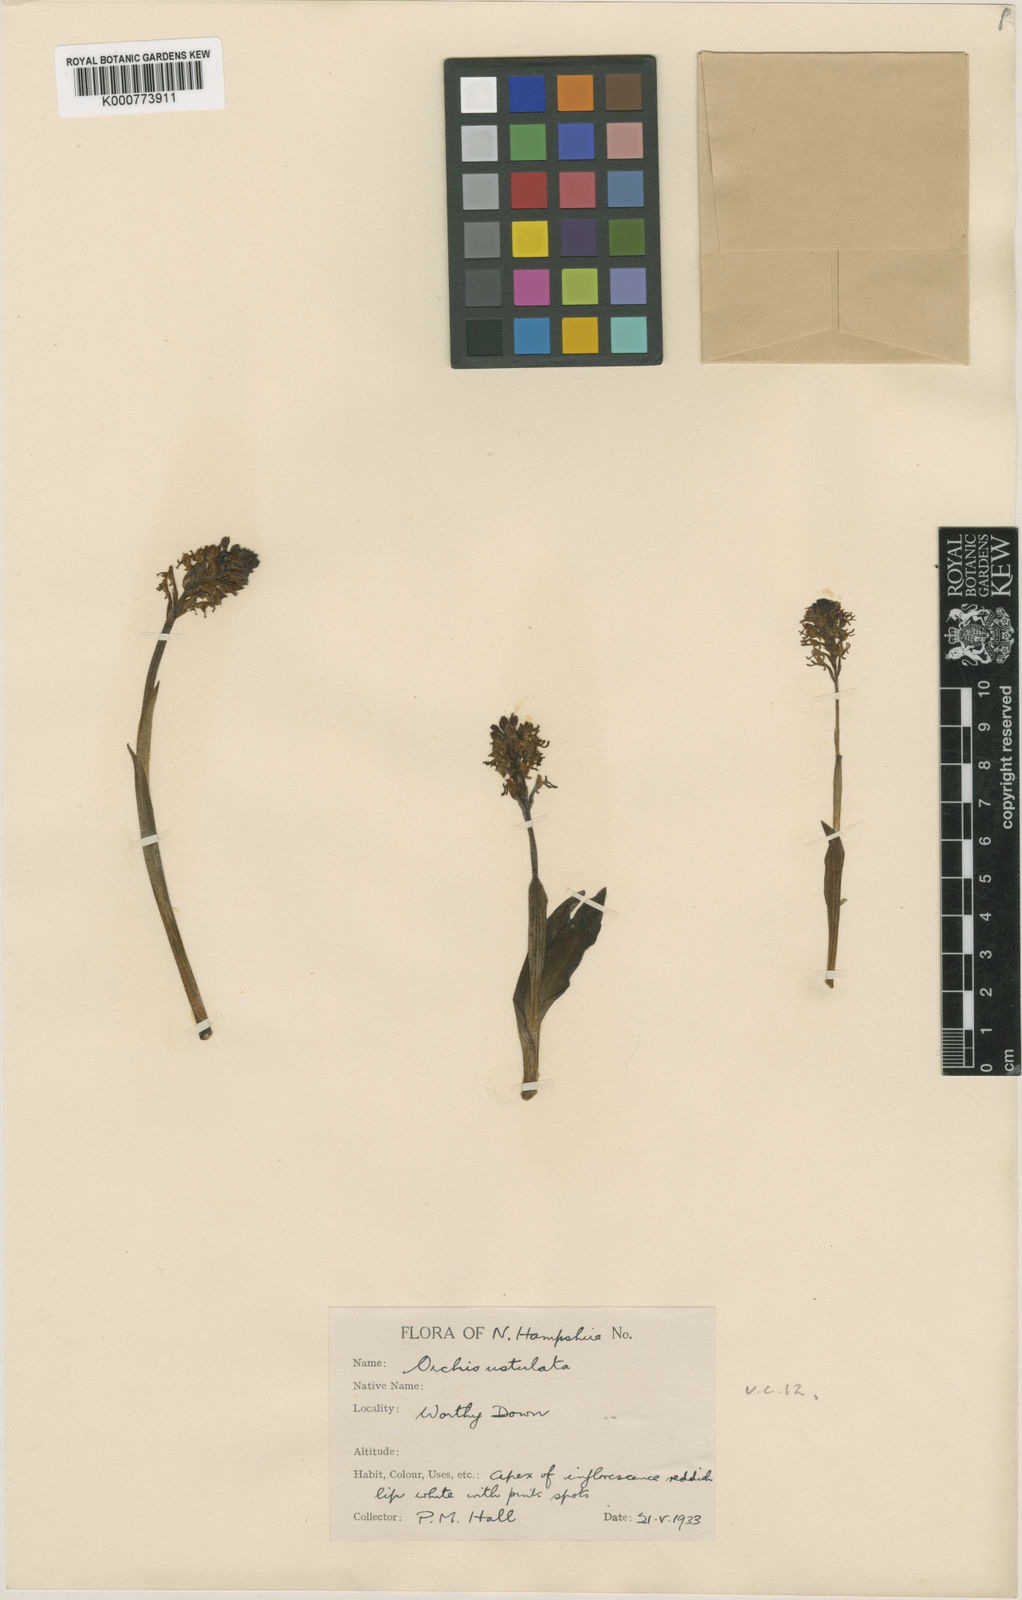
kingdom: Plantae
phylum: Tracheophyta
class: Liliopsida
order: Asparagales
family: Orchidaceae
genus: Neotinea
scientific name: Neotinea ustulata
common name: Burnt orchid
